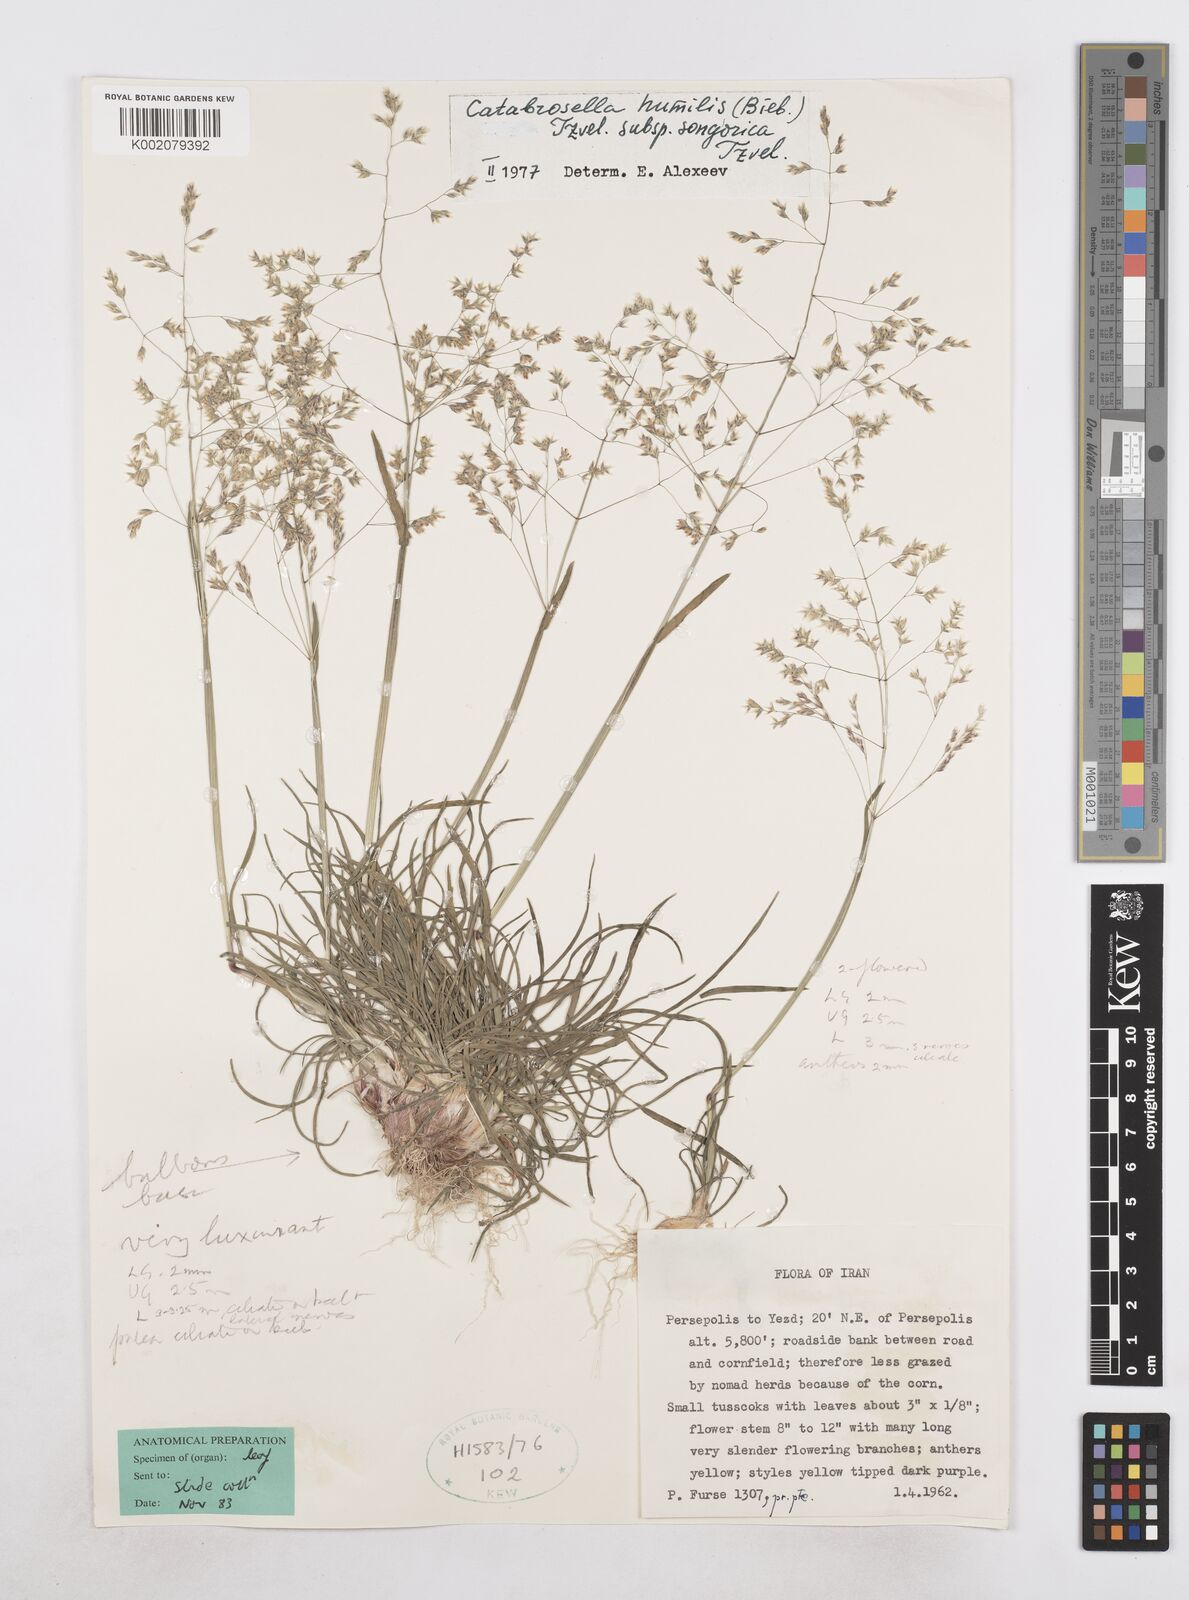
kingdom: Plantae
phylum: Tracheophyta
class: Liliopsida
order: Poales
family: Poaceae
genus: Catabrosella
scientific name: Catabrosella humilis
